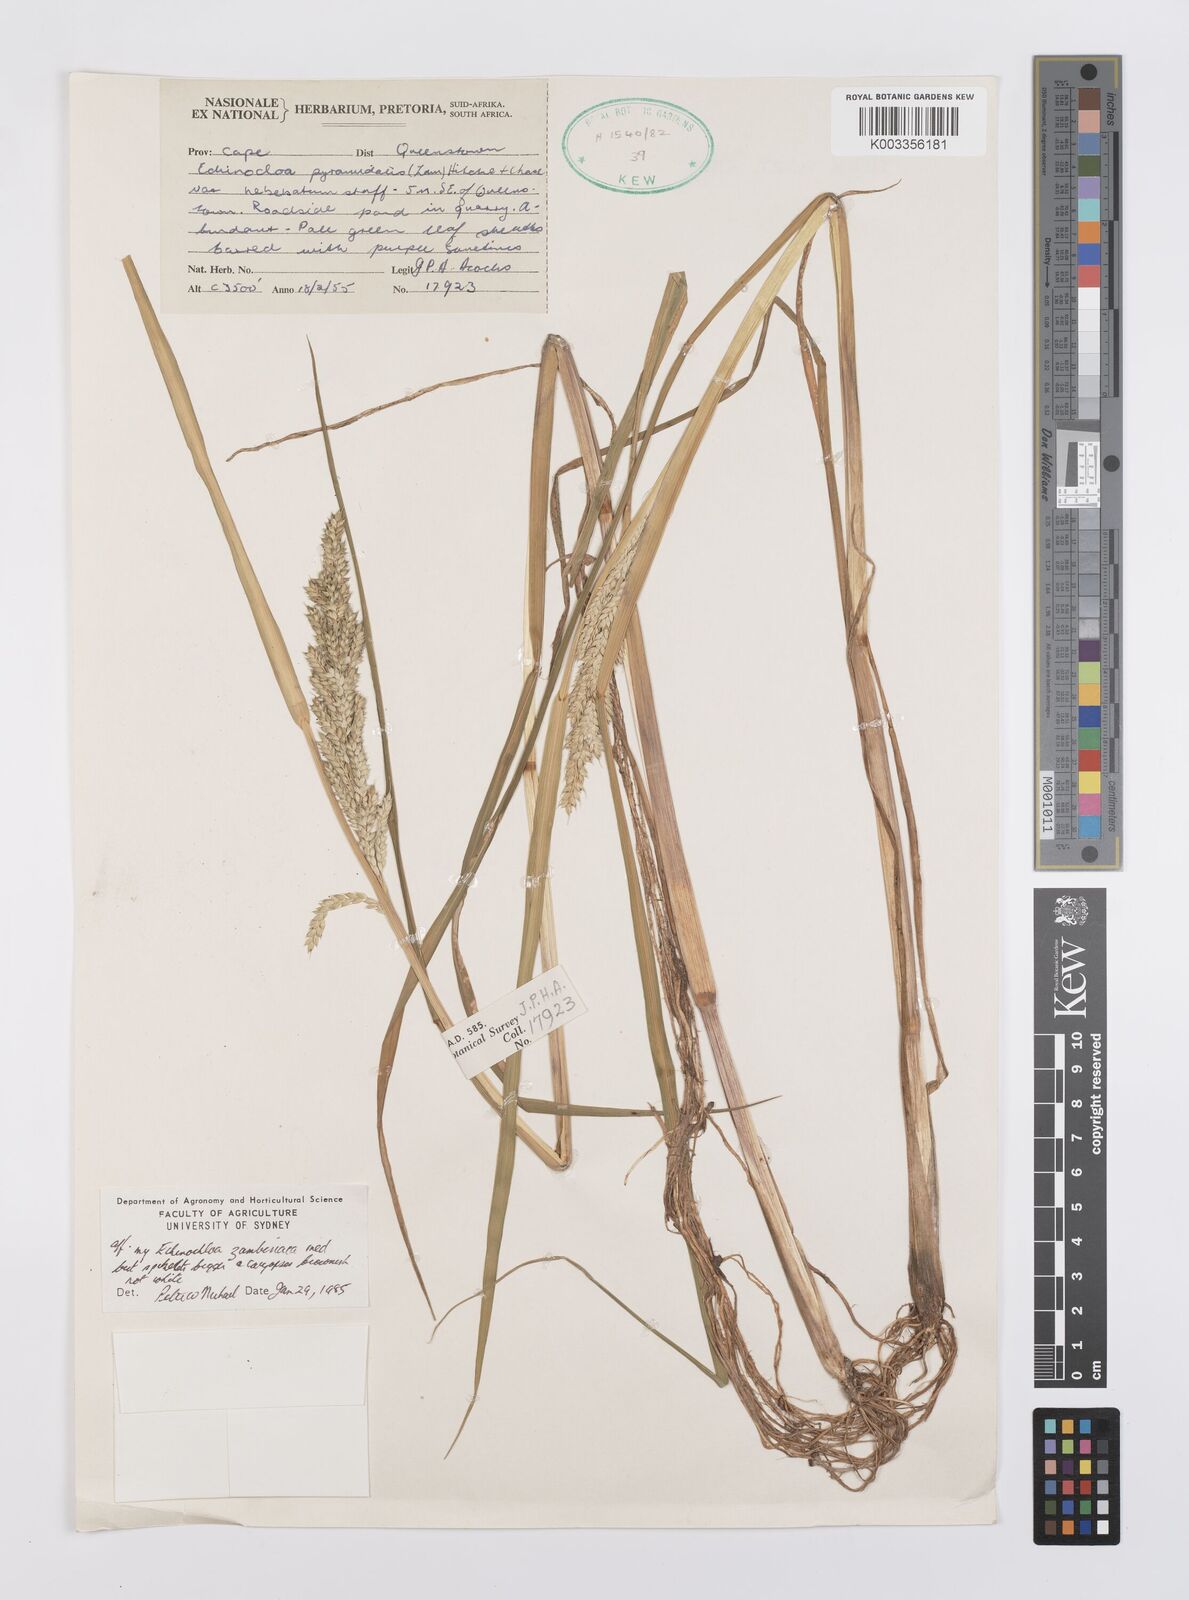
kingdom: Plantae
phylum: Tracheophyta
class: Liliopsida
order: Poales
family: Poaceae
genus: Echinochloa
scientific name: Echinochloa ugandensis
